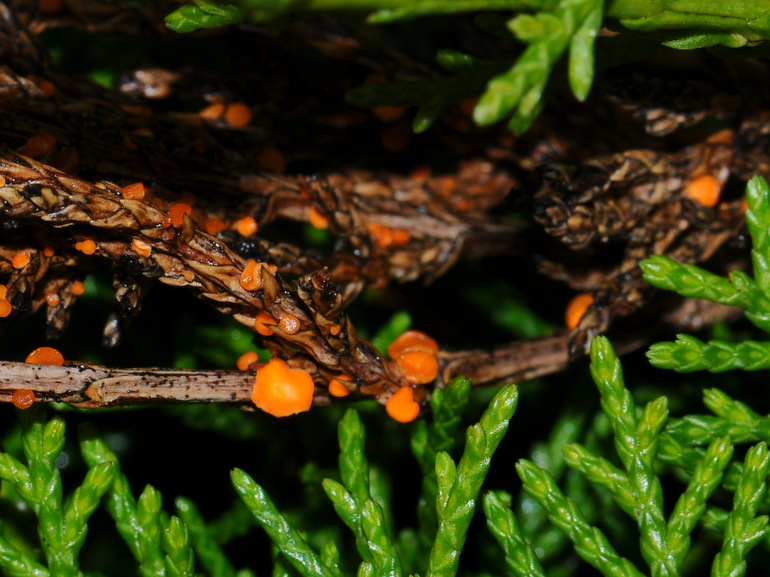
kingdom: Fungi
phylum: Ascomycota
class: Pezizomycetes
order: Pezizales
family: Sarcoscyphaceae
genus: Pithya
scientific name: Pithya cupressina
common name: lille dukatbæger
